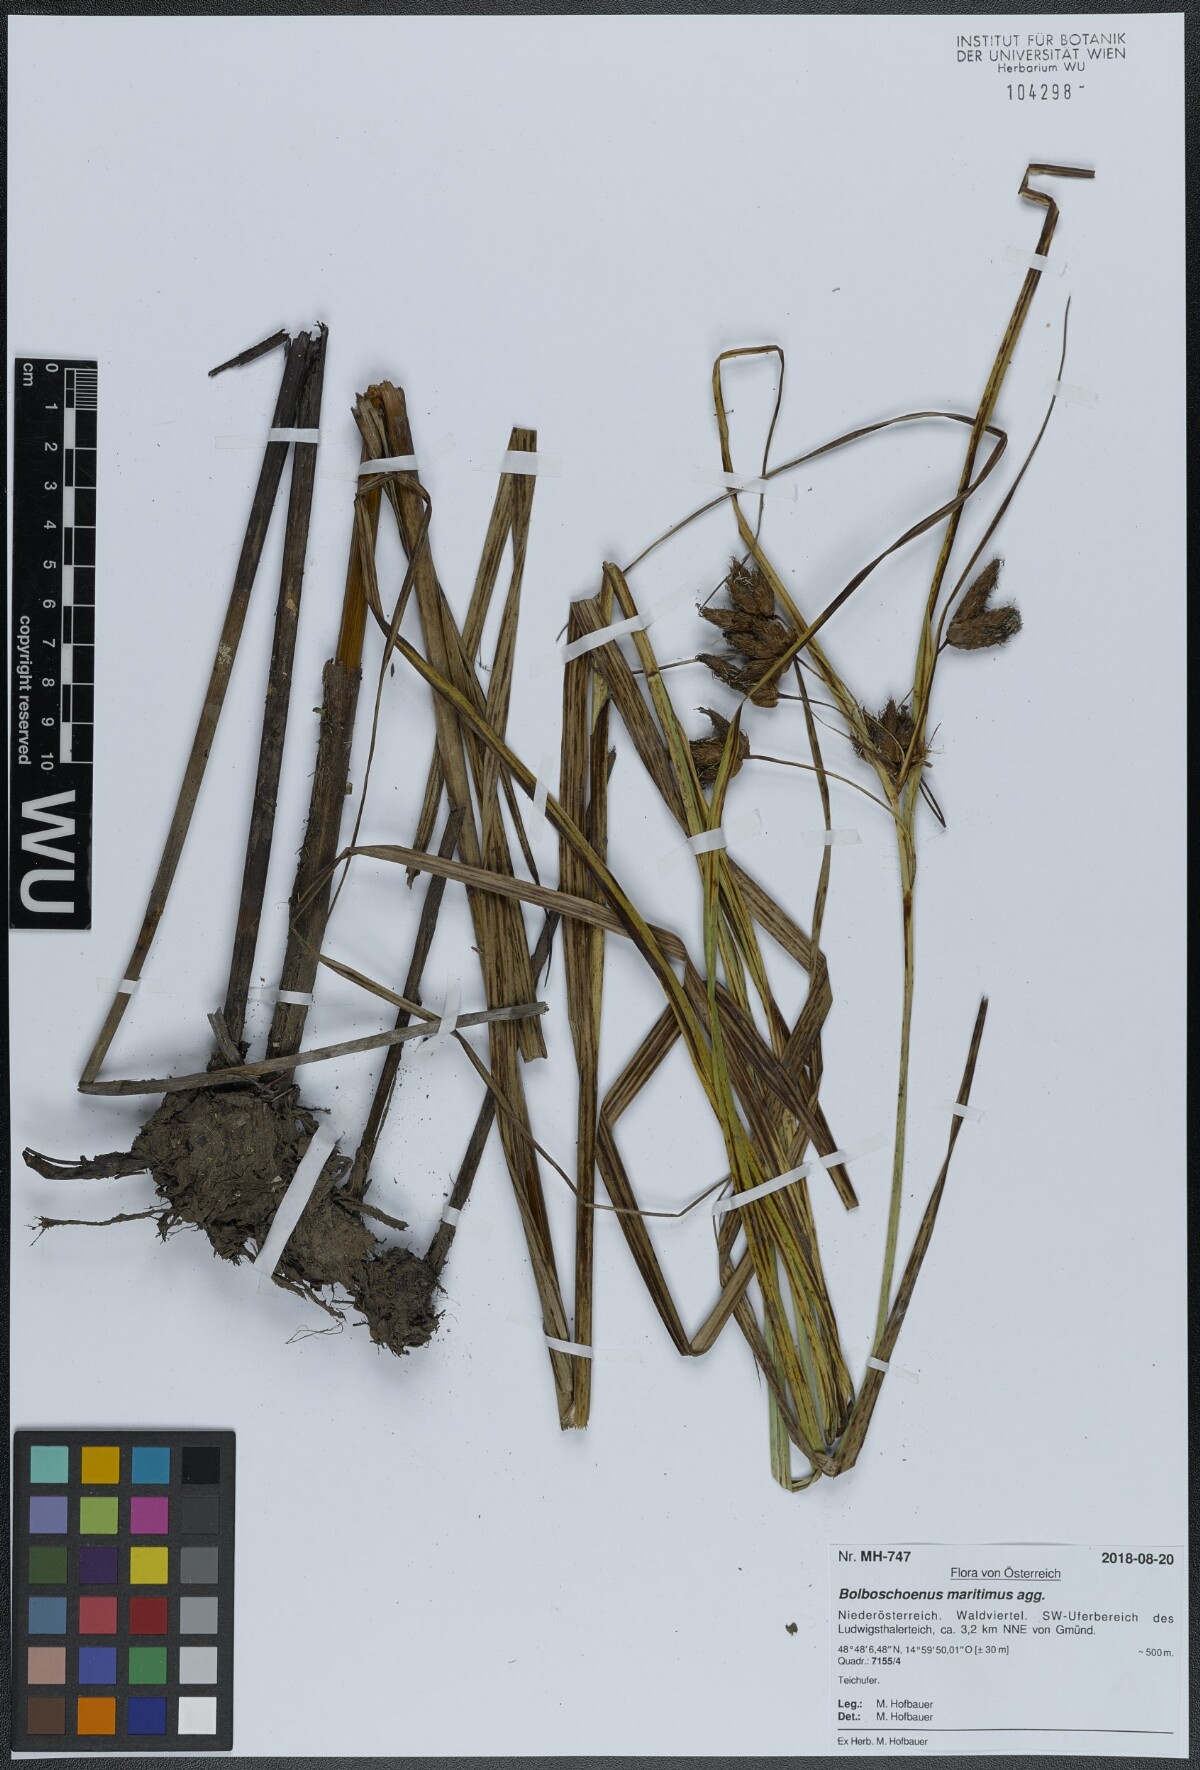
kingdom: Plantae
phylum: Tracheophyta
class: Liliopsida
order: Poales
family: Cyperaceae
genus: Bolboschoenus
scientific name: Bolboschoenus maritimus
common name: Sea club-rush
